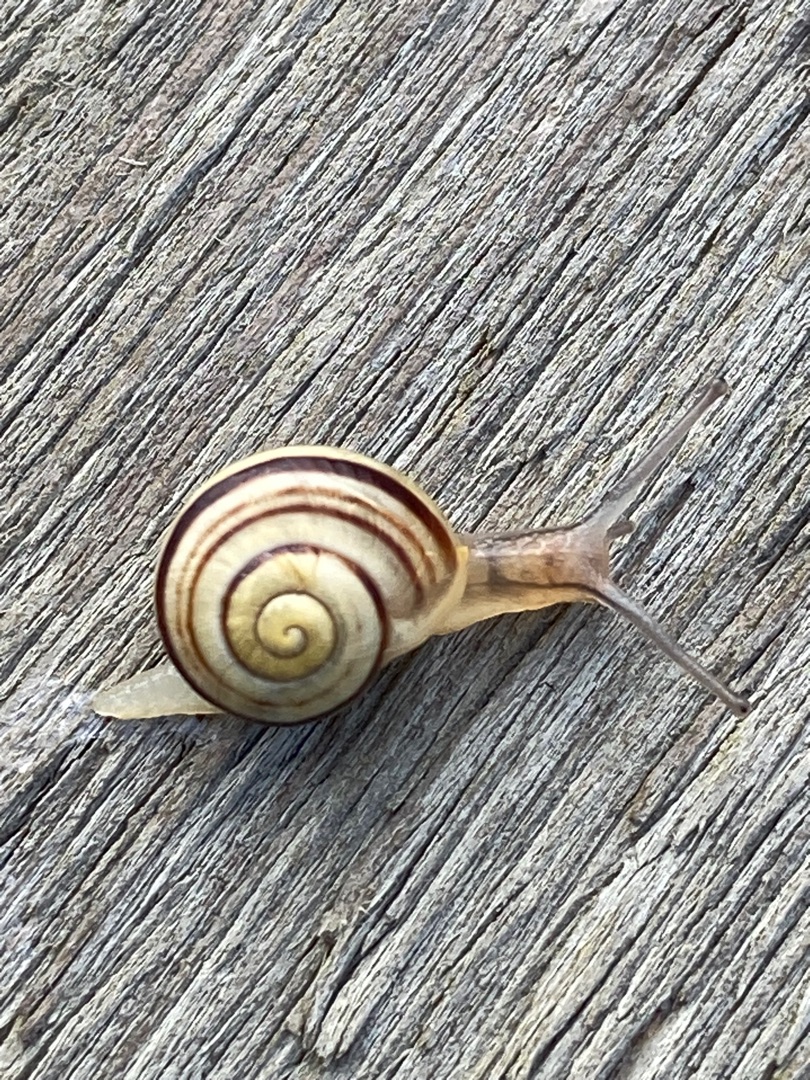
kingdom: Animalia
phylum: Mollusca
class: Gastropoda
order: Stylommatophora
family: Helicidae
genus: Cepaea
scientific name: Cepaea hortensis
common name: Havesnegl
